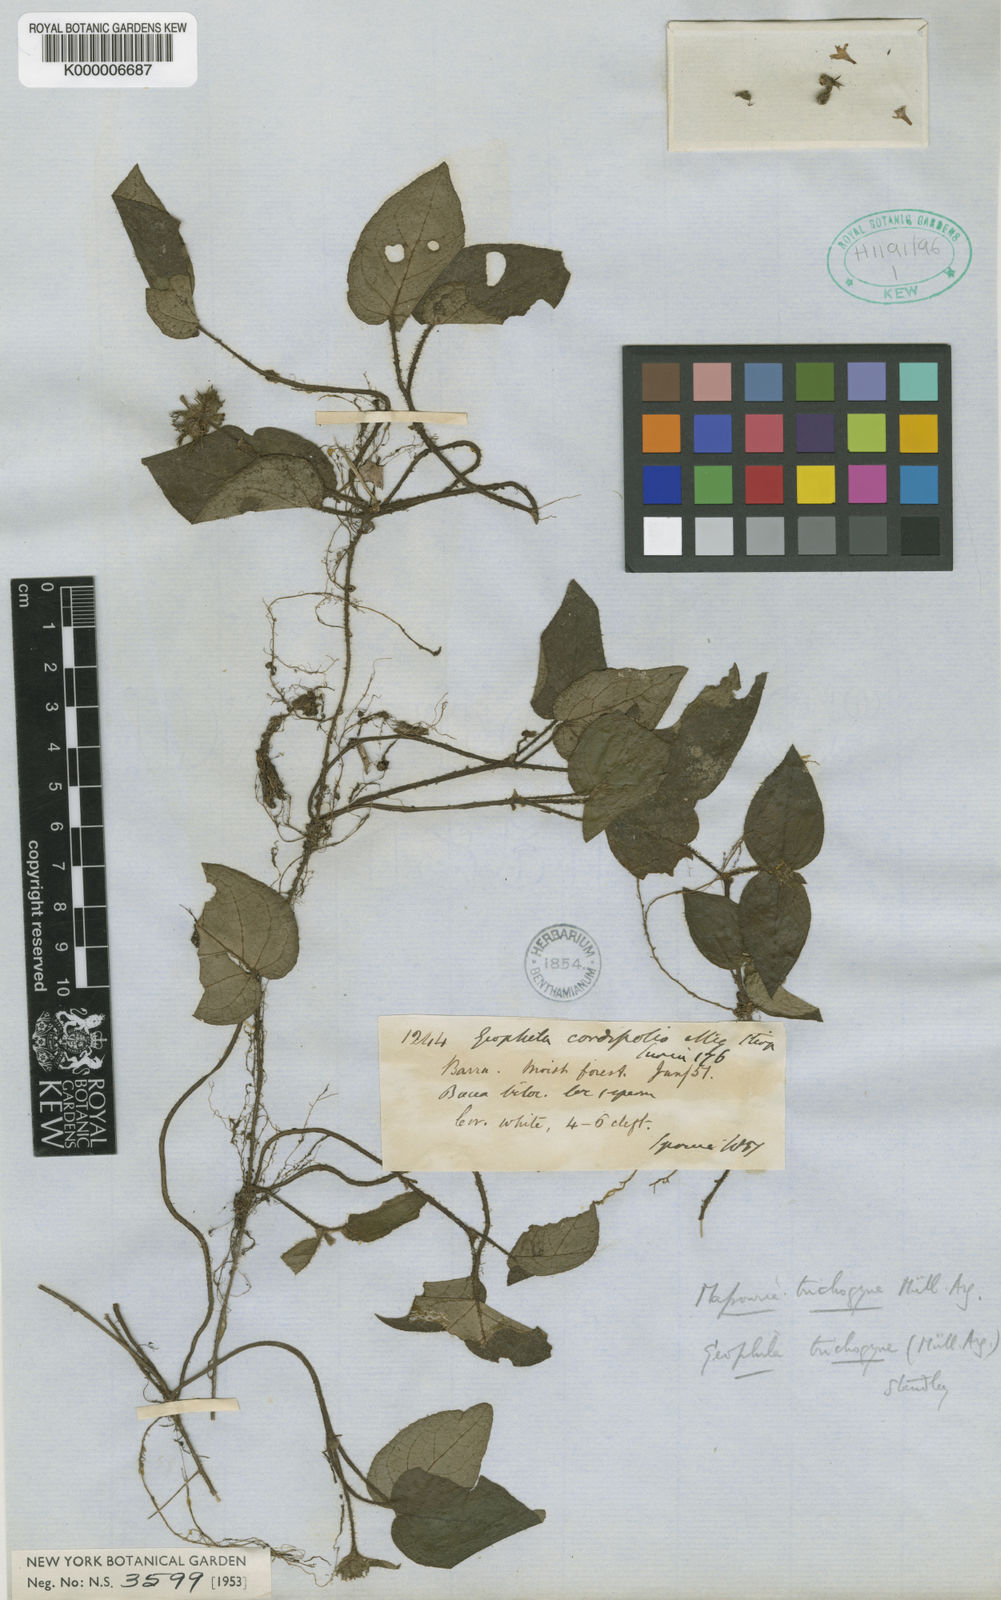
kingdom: Plantae
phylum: Tracheophyta
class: Magnoliopsida
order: Gentianales
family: Rubiaceae
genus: Geophila
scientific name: Geophila cordifolia
